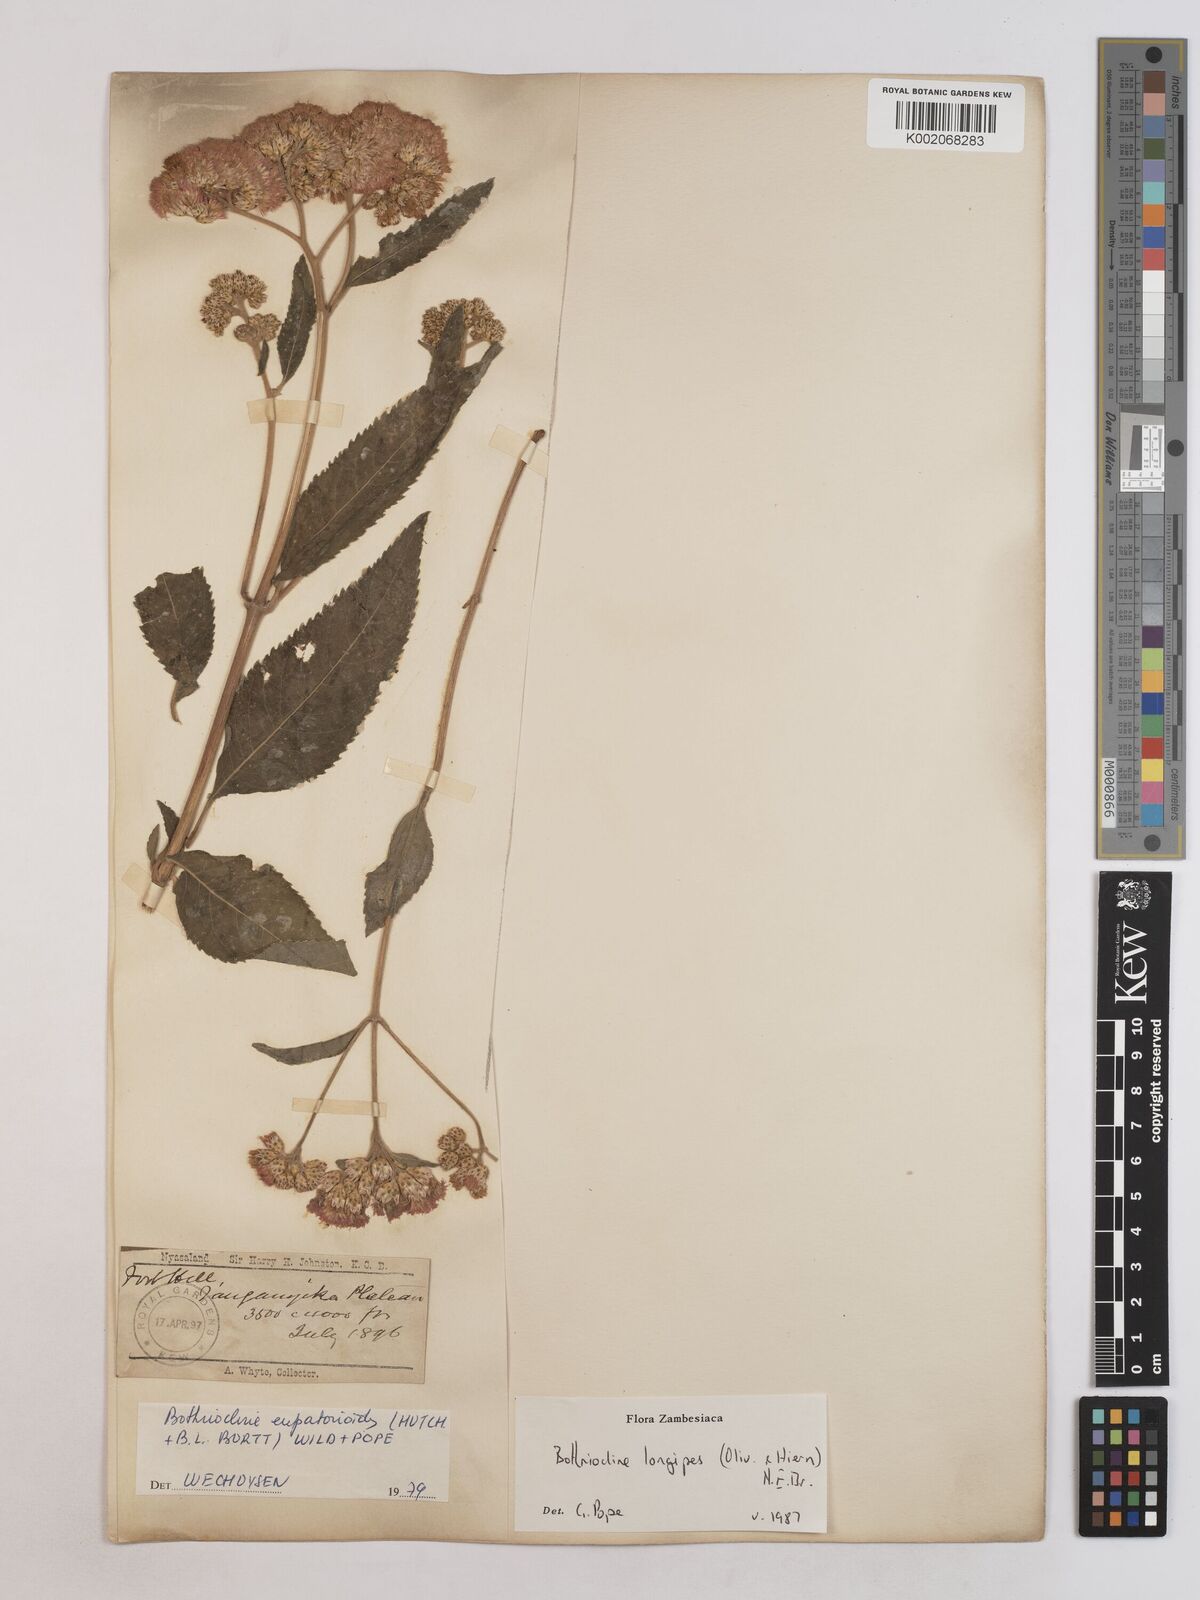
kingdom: Plantae
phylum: Tracheophyta
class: Magnoliopsida
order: Asterales
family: Asteraceae
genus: Bothriocline
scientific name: Bothriocline longipes
